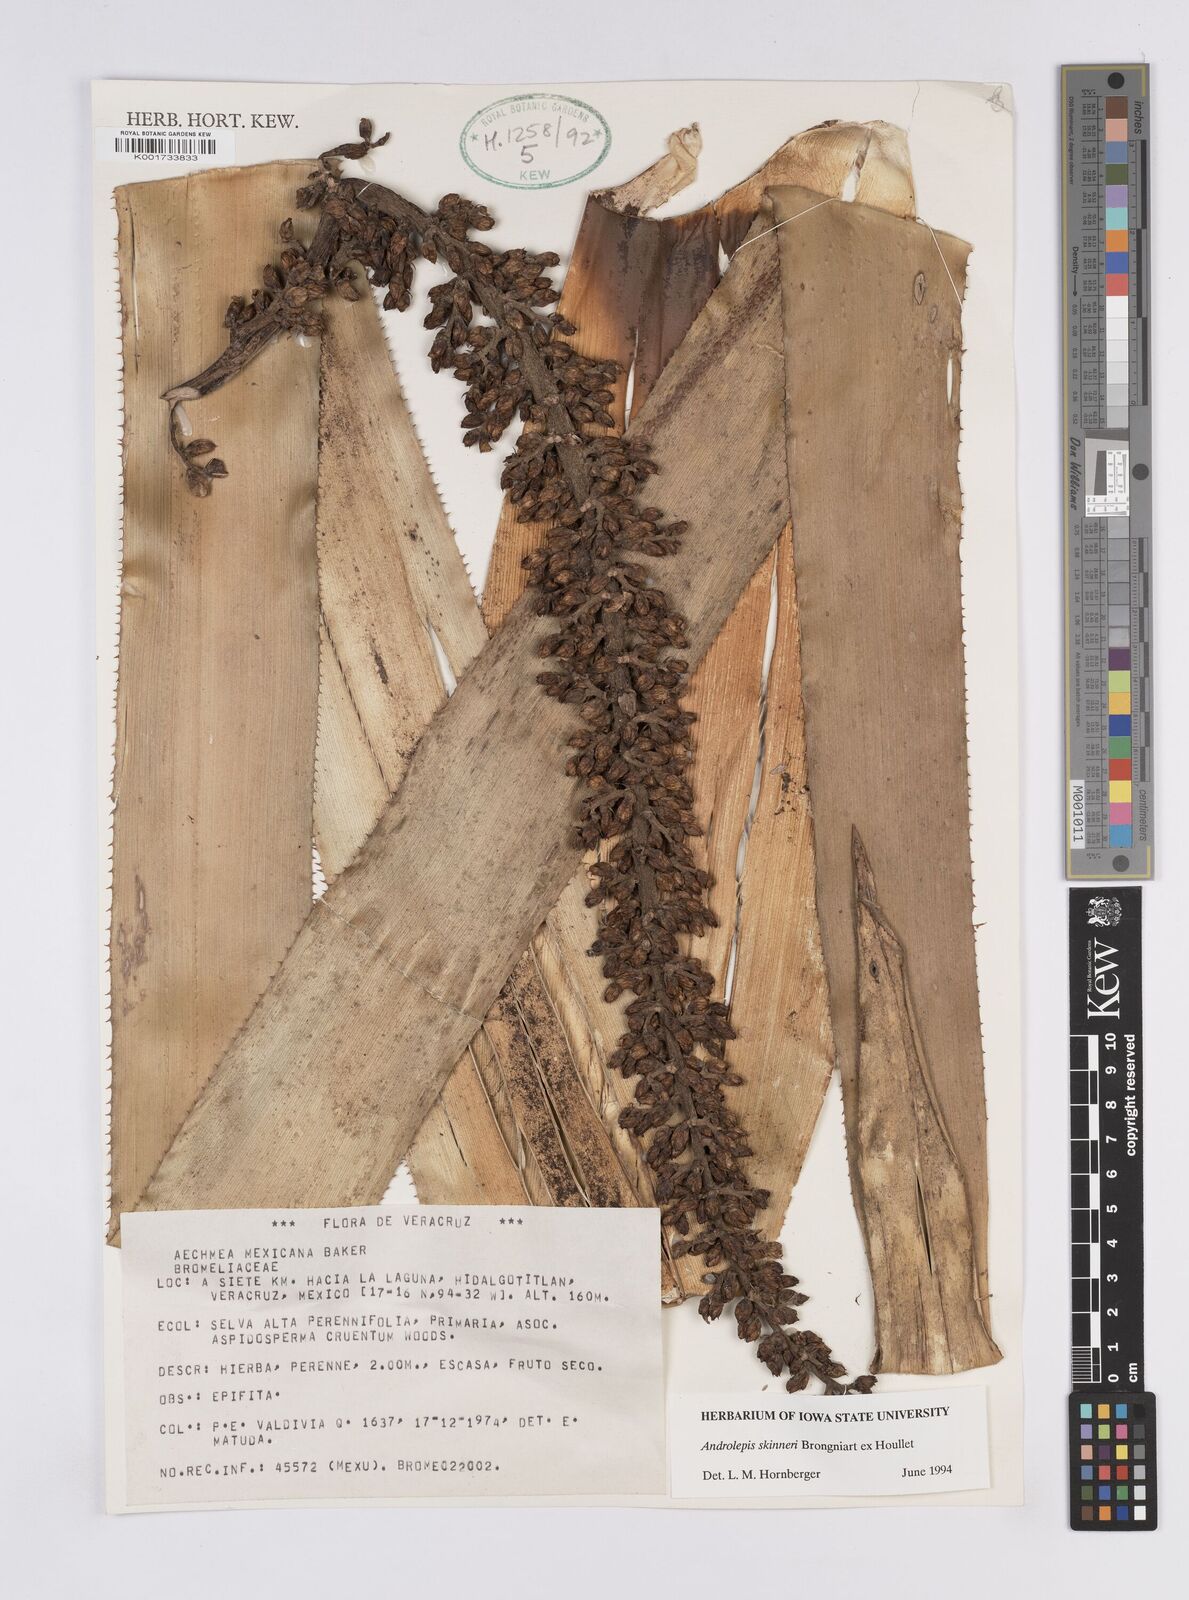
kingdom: Plantae
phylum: Tracheophyta
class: Liliopsida
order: Poales
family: Bromeliaceae
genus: Androlepis
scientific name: Androlepis skinneri
